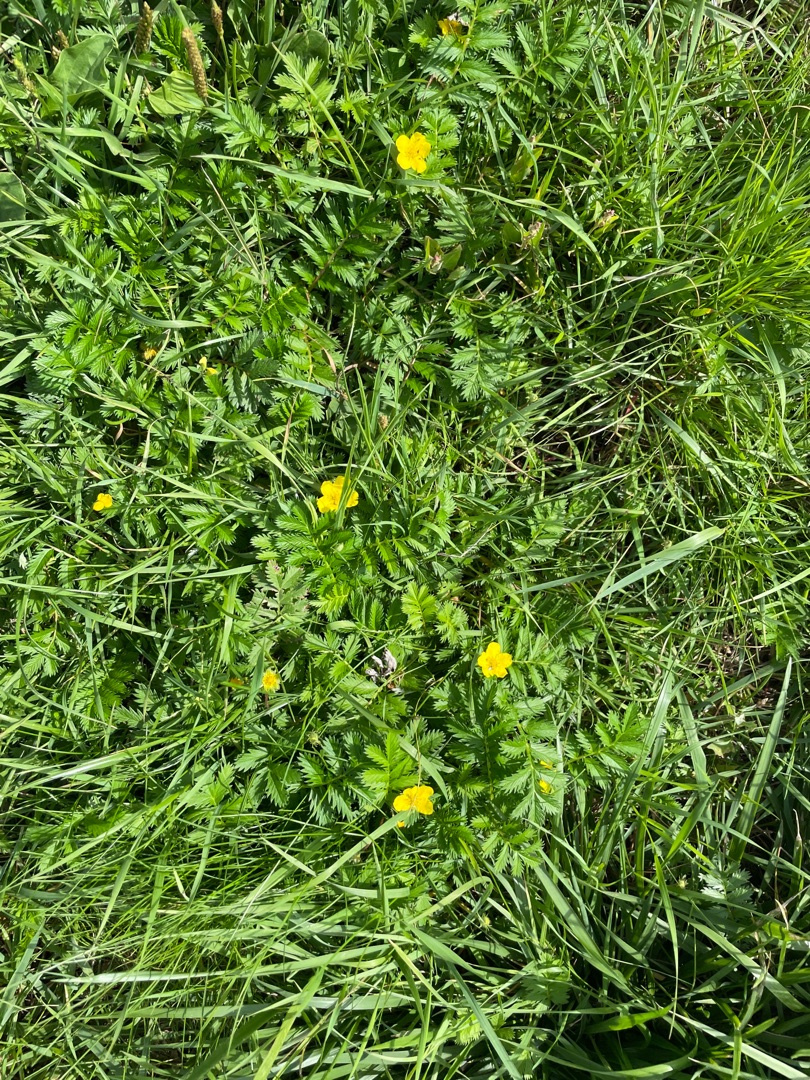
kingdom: Plantae
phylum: Tracheophyta
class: Magnoliopsida
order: Rosales
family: Rosaceae
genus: Argentina
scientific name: Argentina anserina
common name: Gåsepotentil
